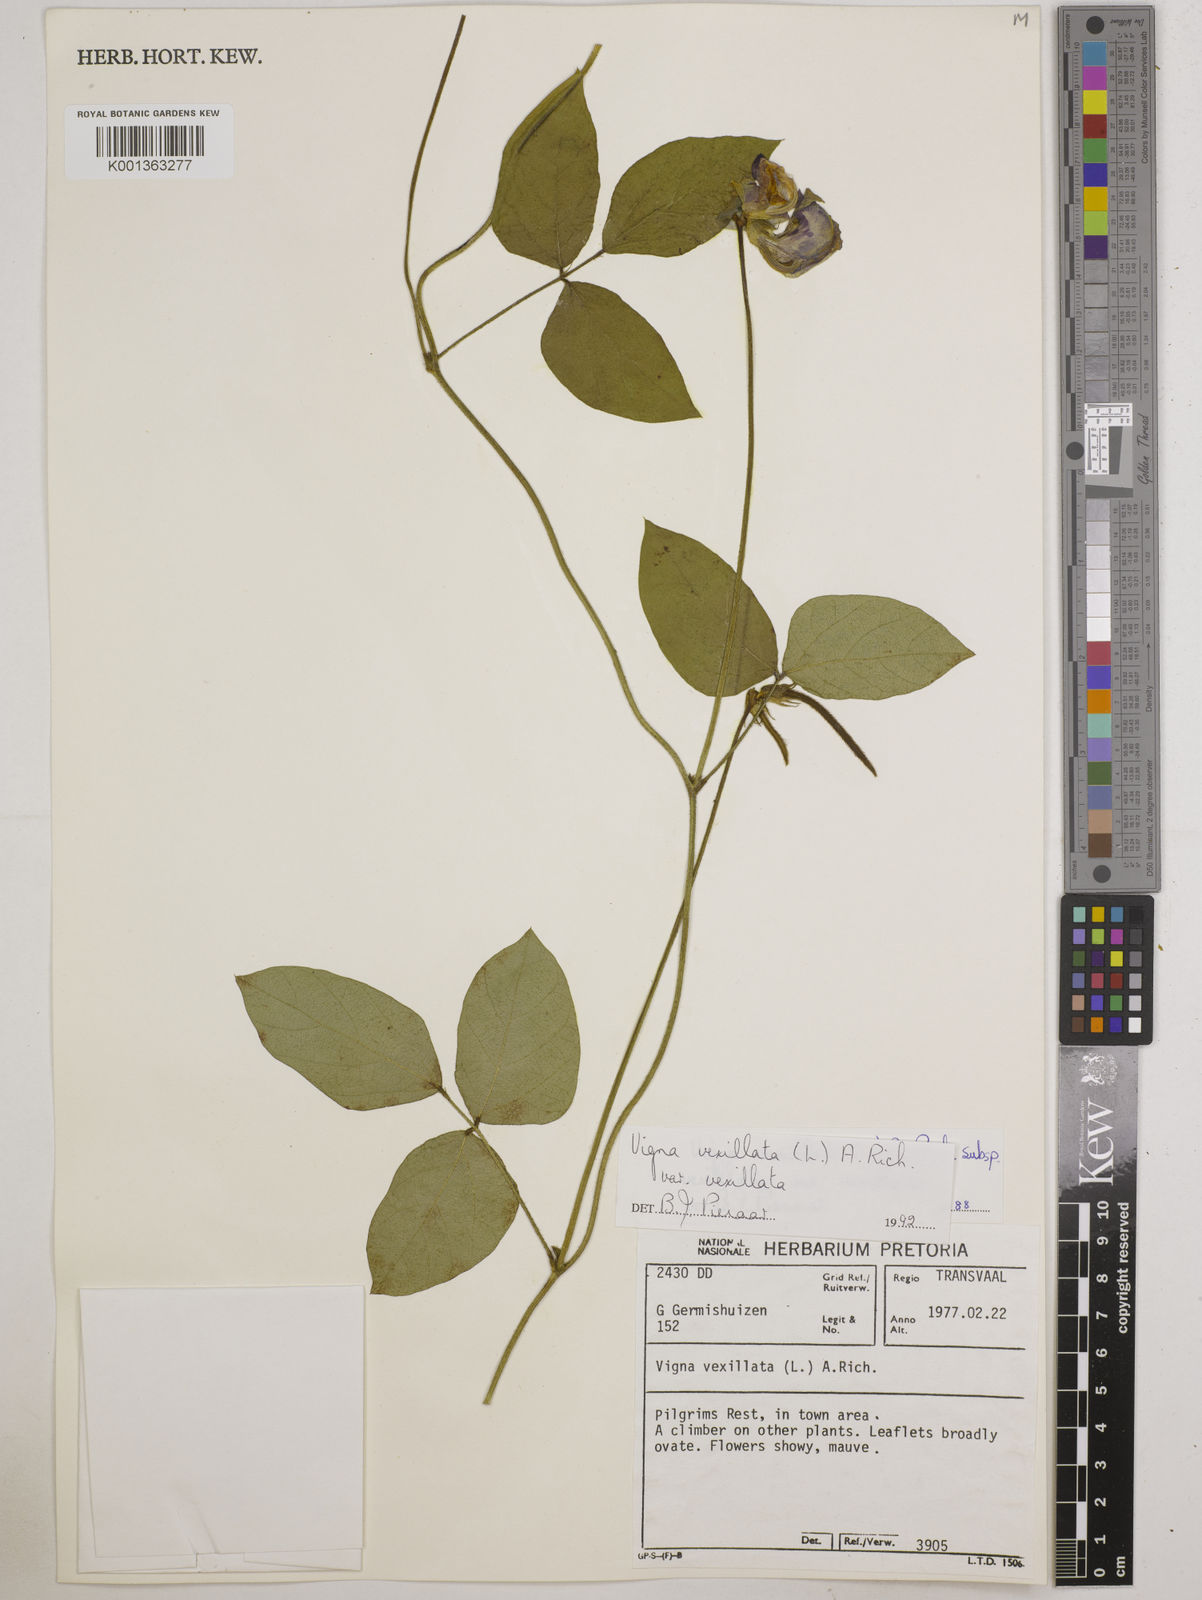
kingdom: Plantae
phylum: Tracheophyta
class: Magnoliopsida
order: Fabales
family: Fabaceae
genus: Vigna
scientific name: Vigna
